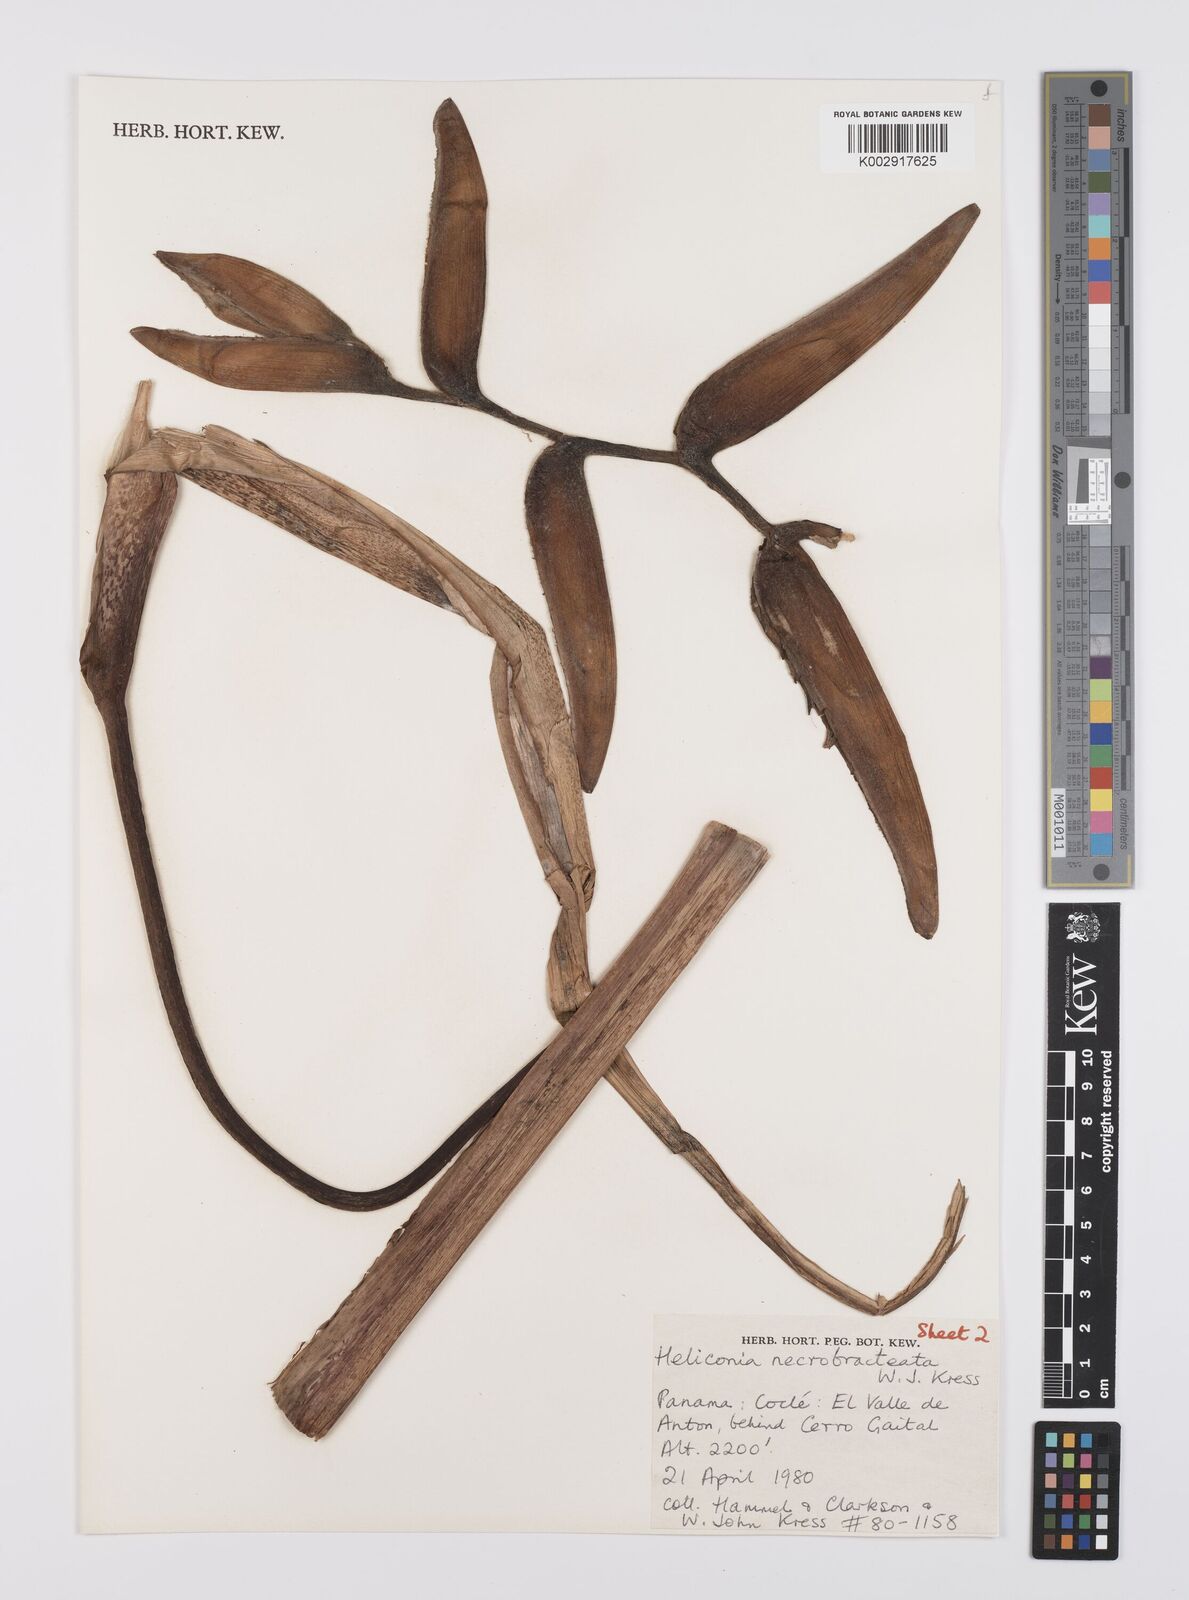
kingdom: Plantae
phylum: Tracheophyta
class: Liliopsida
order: Zingiberales
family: Heliconiaceae
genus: Heliconia
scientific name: Heliconia necrobracteata
